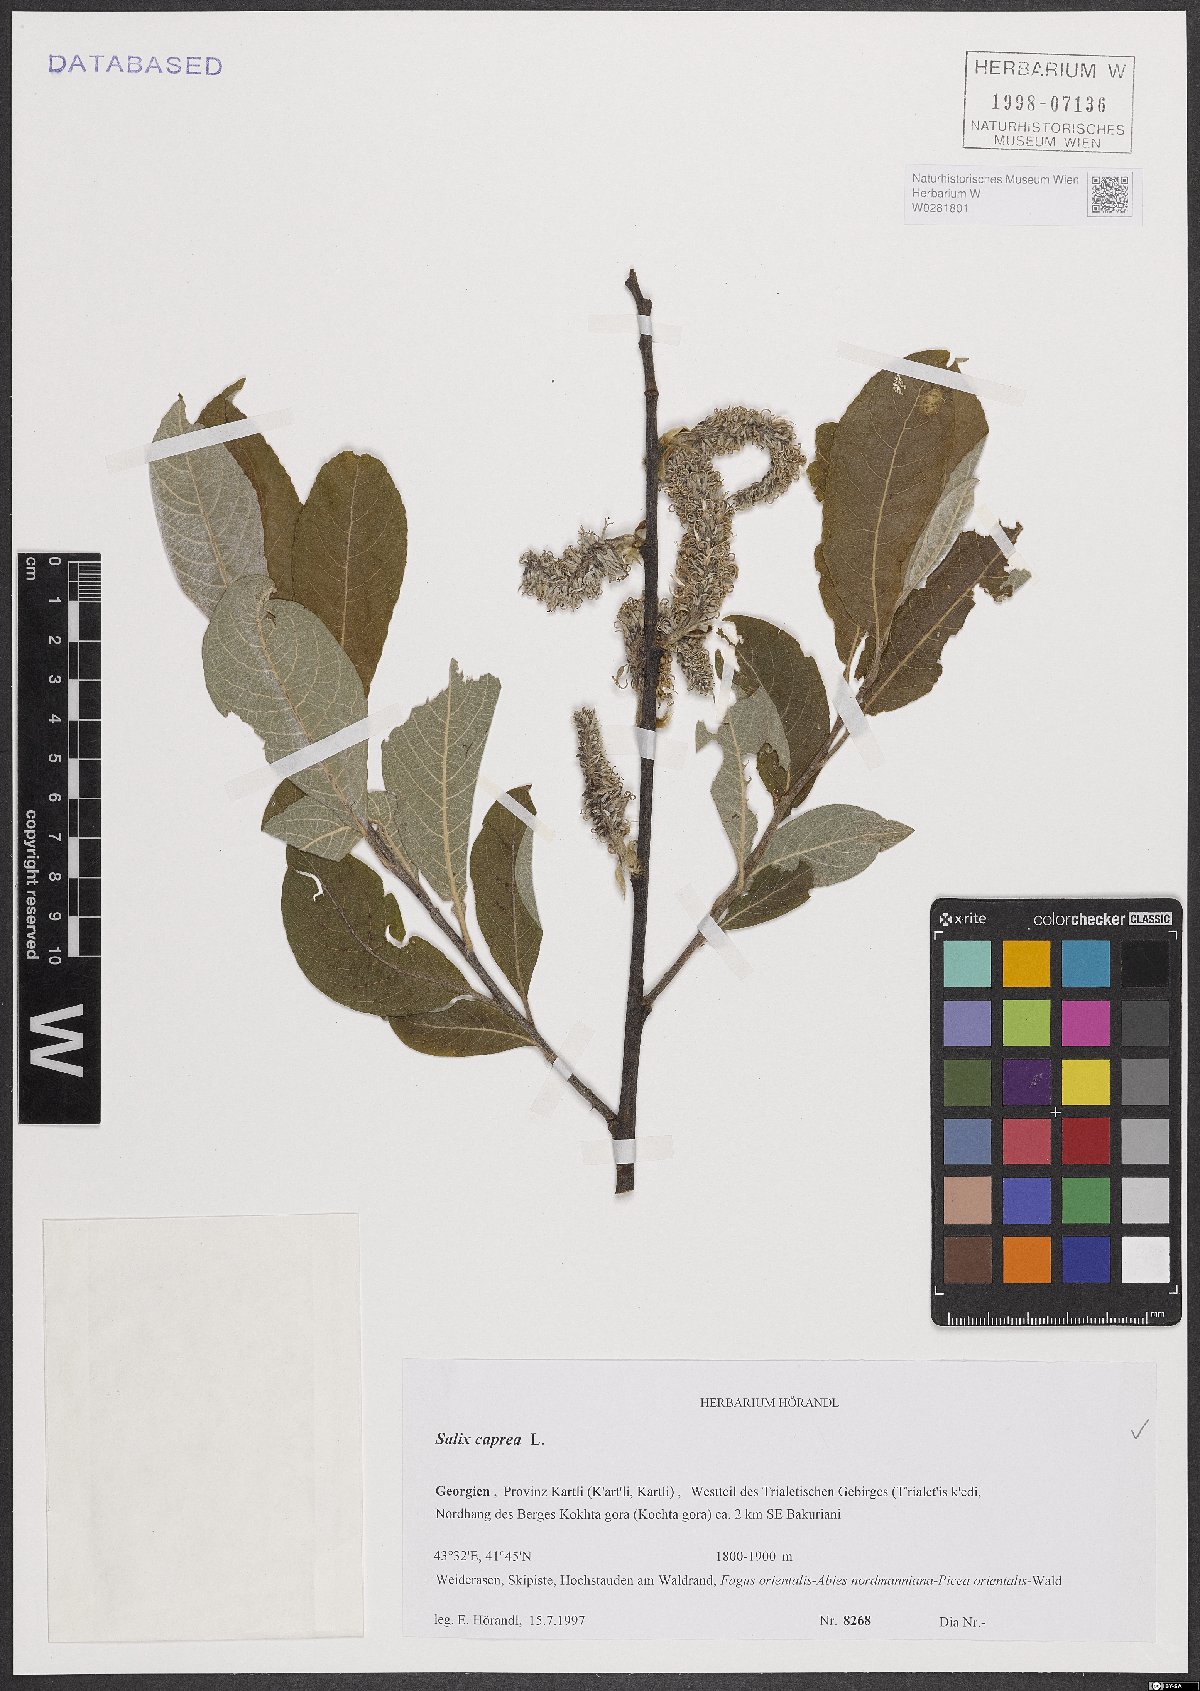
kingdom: Plantae
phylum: Tracheophyta
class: Magnoliopsida
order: Malpighiales
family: Salicaceae
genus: Salix
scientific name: Salix caprea
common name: Goat willow
